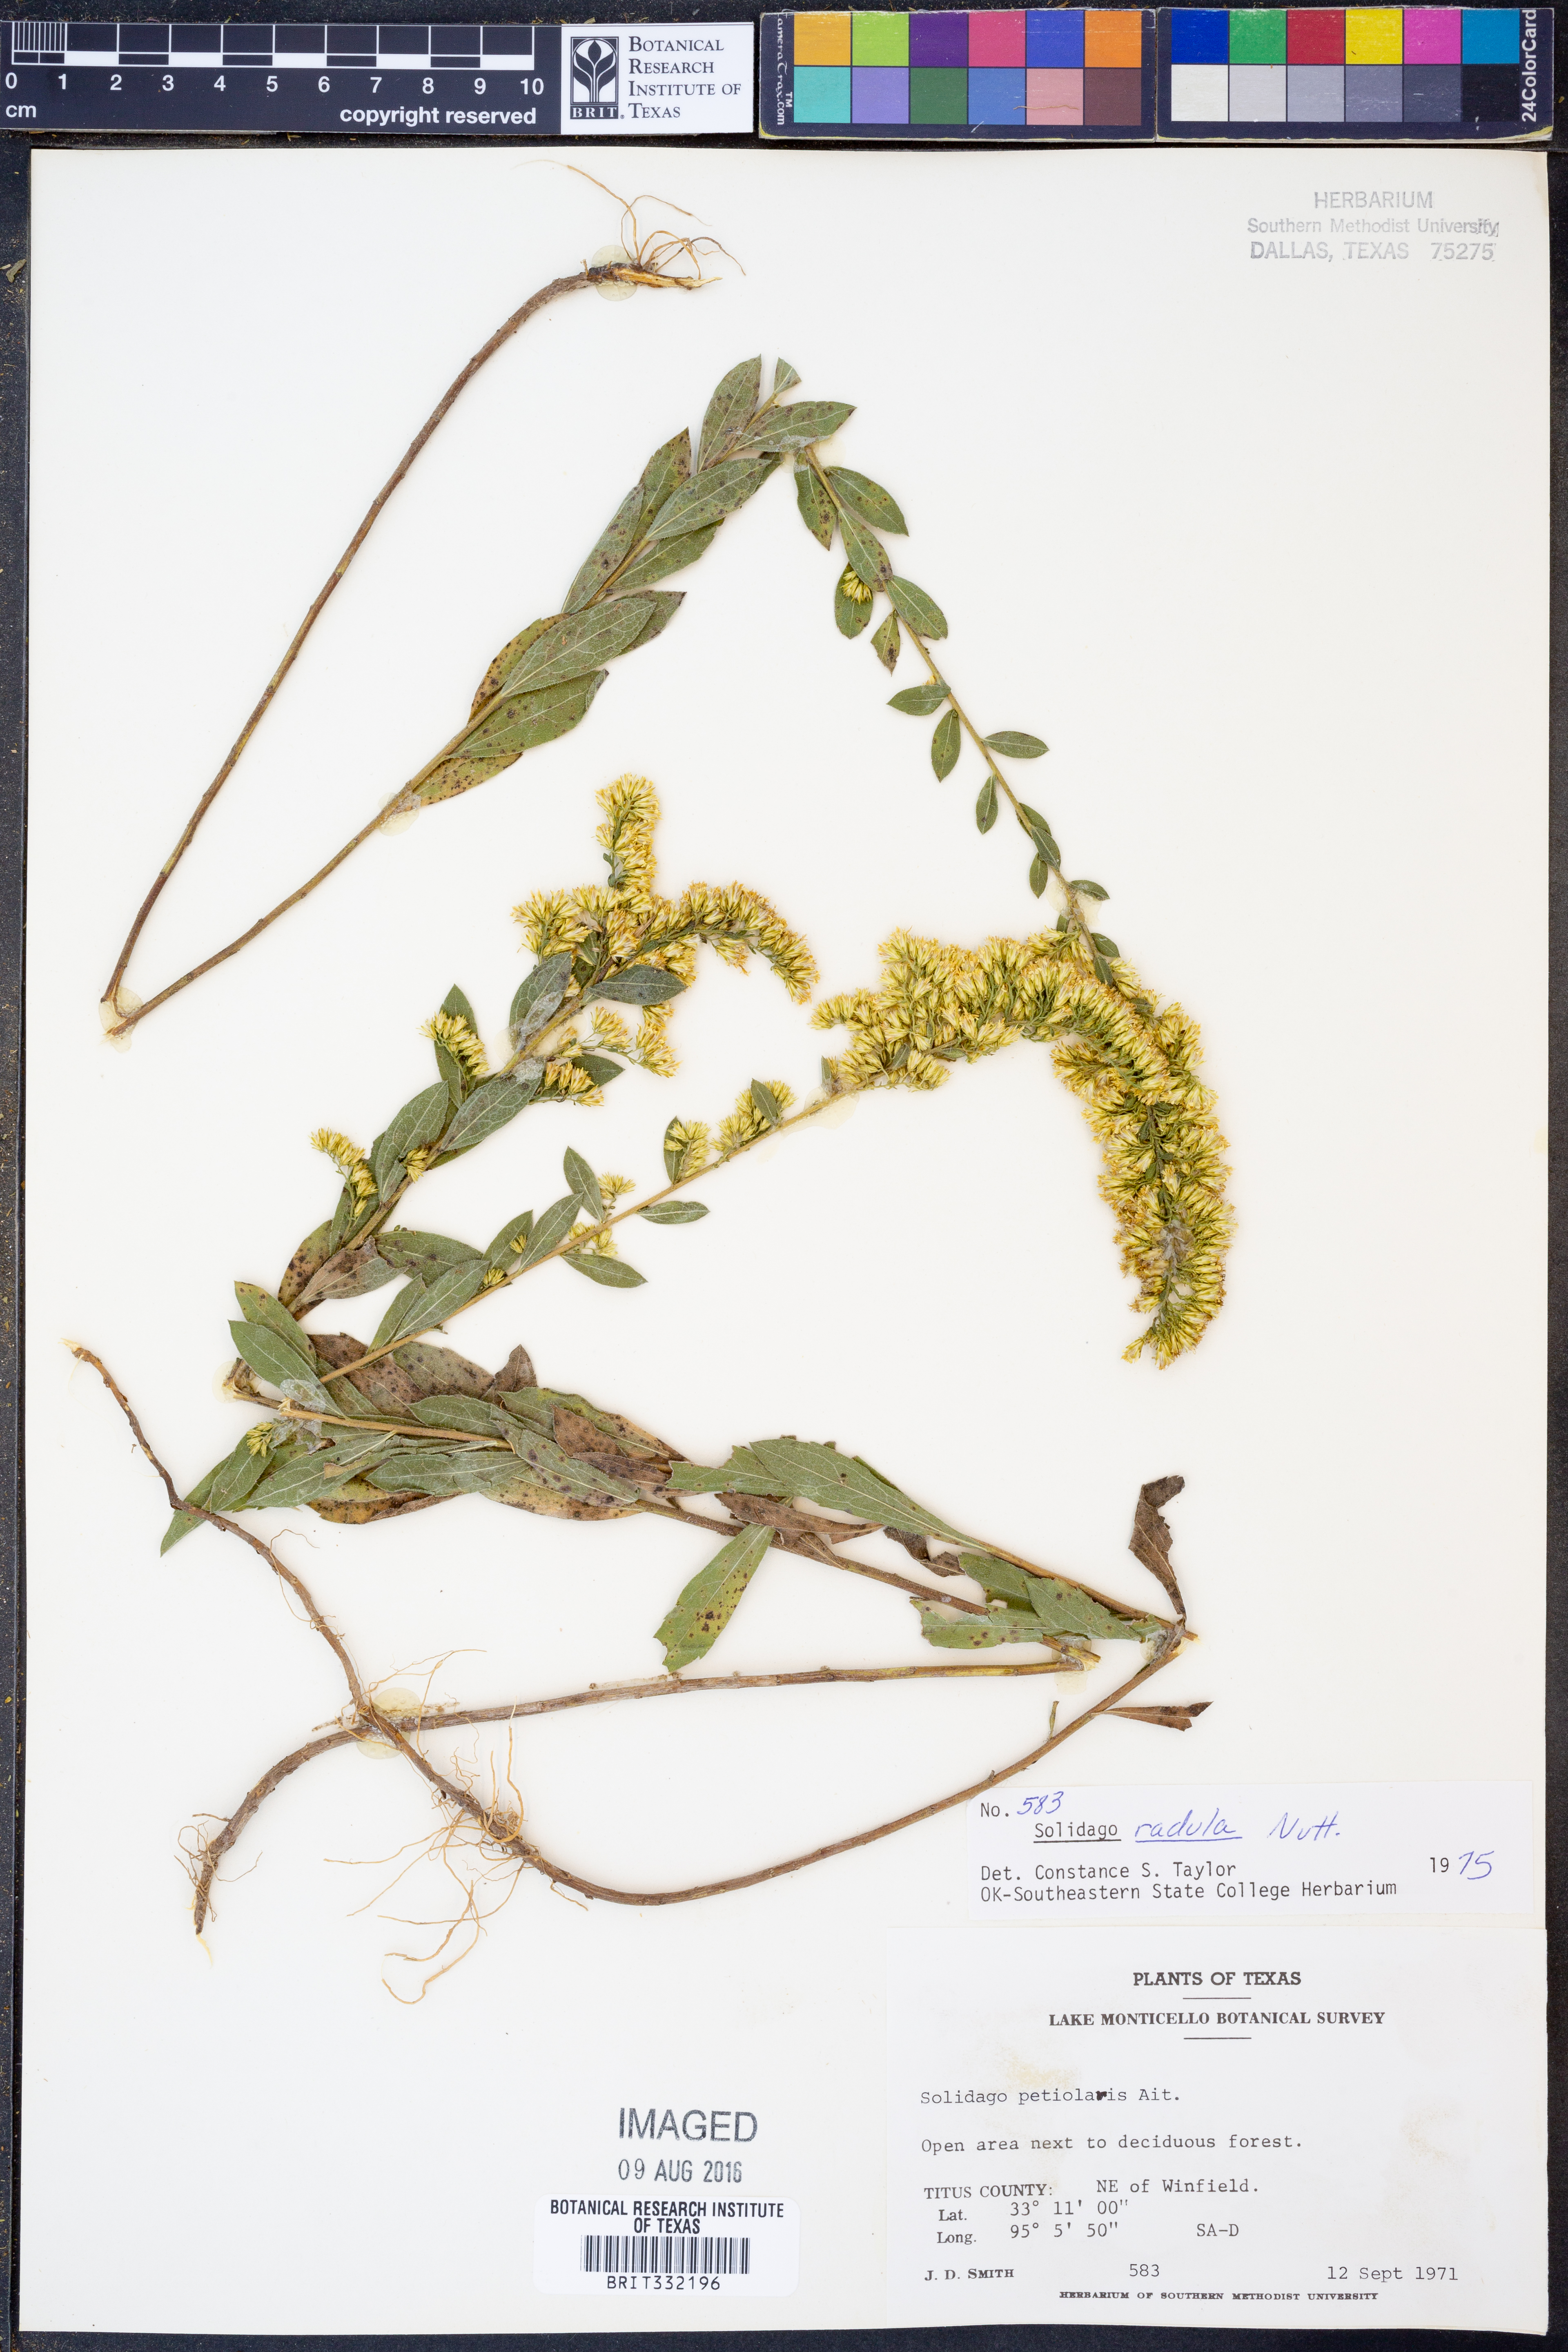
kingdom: Plantae
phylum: Tracheophyta
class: Magnoliopsida
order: Asterales
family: Asteraceae
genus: Solidago
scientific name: Solidago radula
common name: Western rough goldenrod
